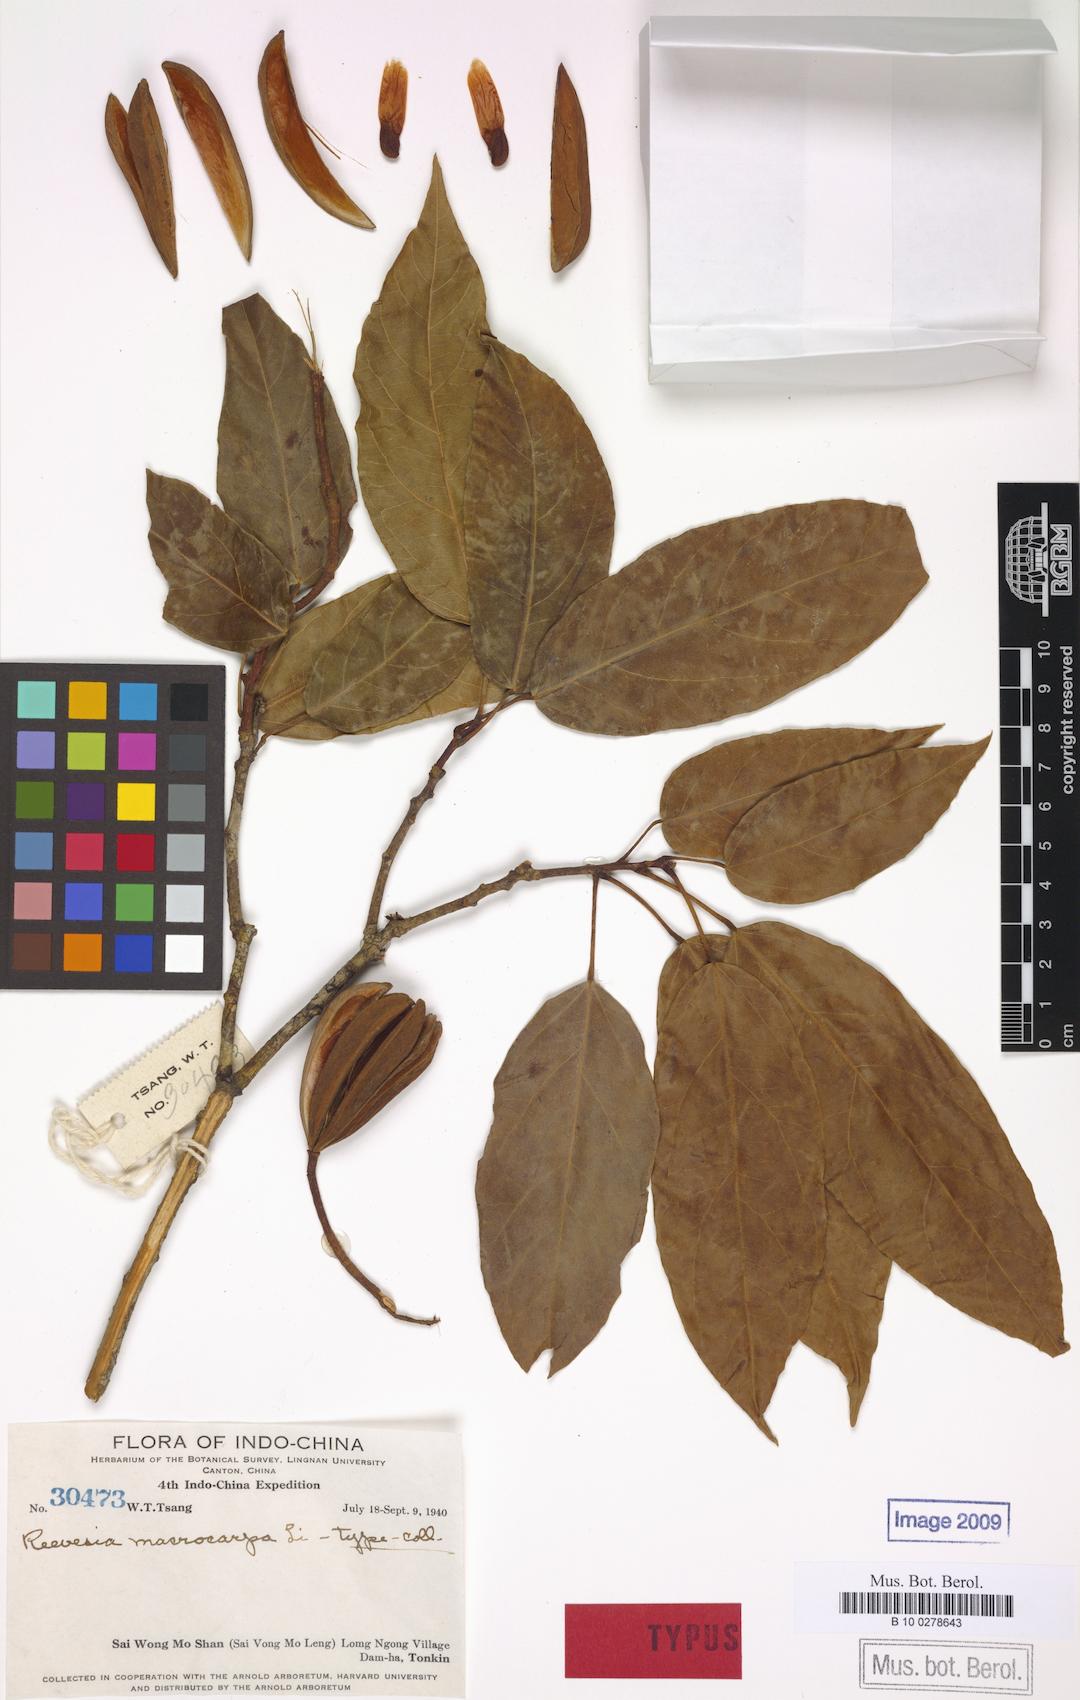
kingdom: Plantae
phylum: Tracheophyta
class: Magnoliopsida
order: Malvales
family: Malvaceae
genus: Reevesia
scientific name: Reevesia thyrsoidea
